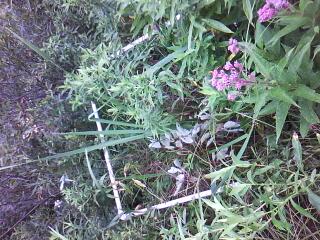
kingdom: Plantae
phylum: Tracheophyta
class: Magnoliopsida
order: Asterales
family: Asteraceae
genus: Eutrochium
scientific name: Eutrochium maculatum
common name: Spotted joe pye weed
